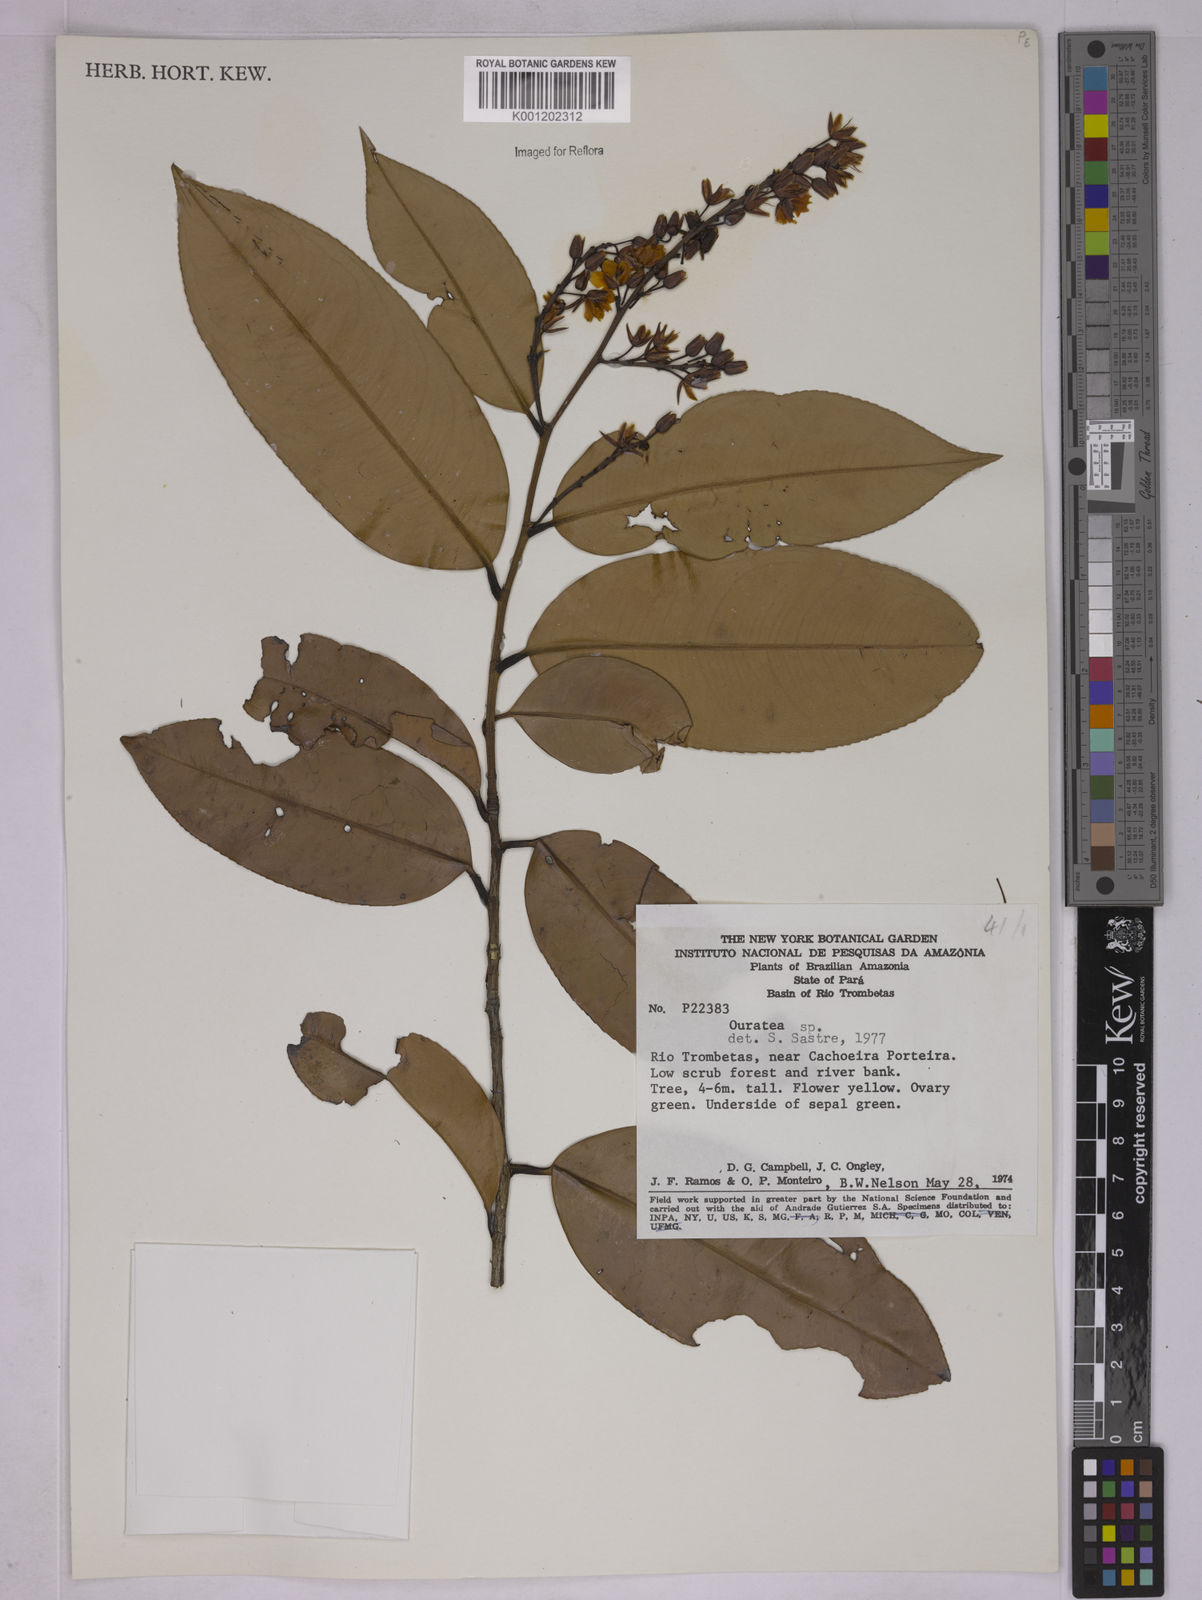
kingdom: Plantae
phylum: Tracheophyta
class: Magnoliopsida
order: Malpighiales
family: Ochnaceae
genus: Ouratea
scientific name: Ouratea
